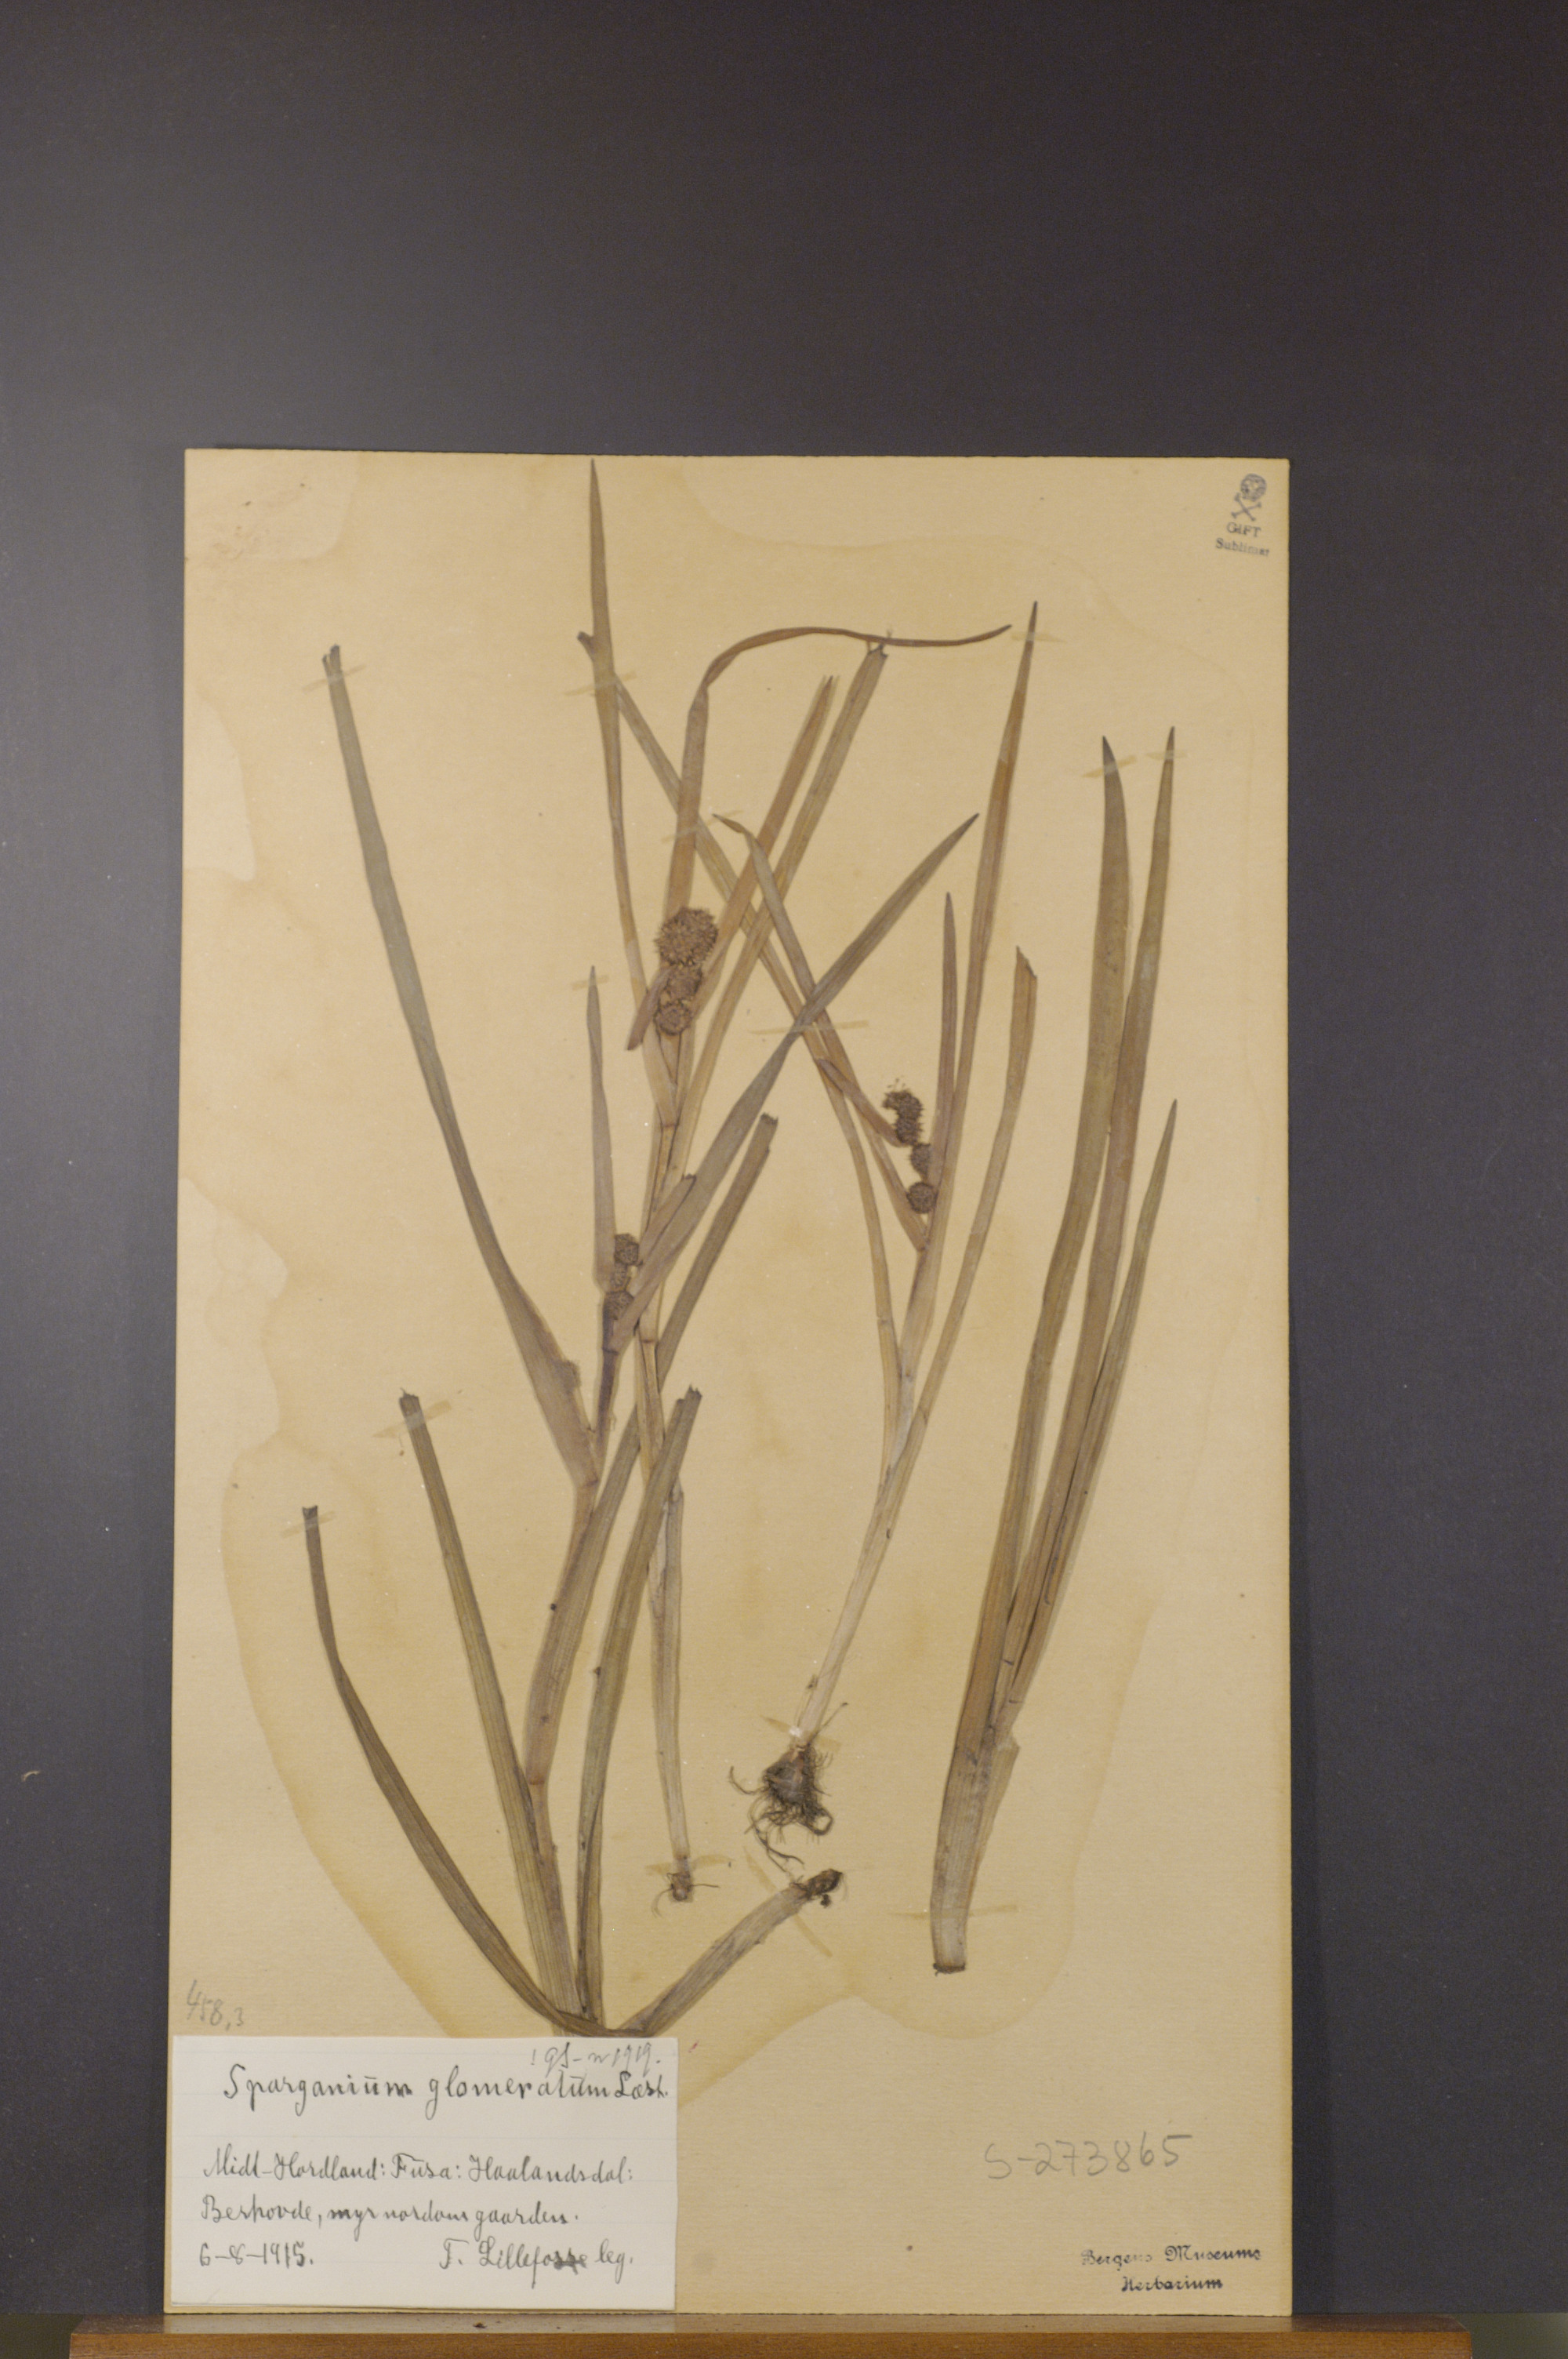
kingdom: Plantae
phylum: Tracheophyta
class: Liliopsida
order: Poales
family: Typhaceae
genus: Sparganium
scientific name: Sparganium glomeratum
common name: Clustered burreed
